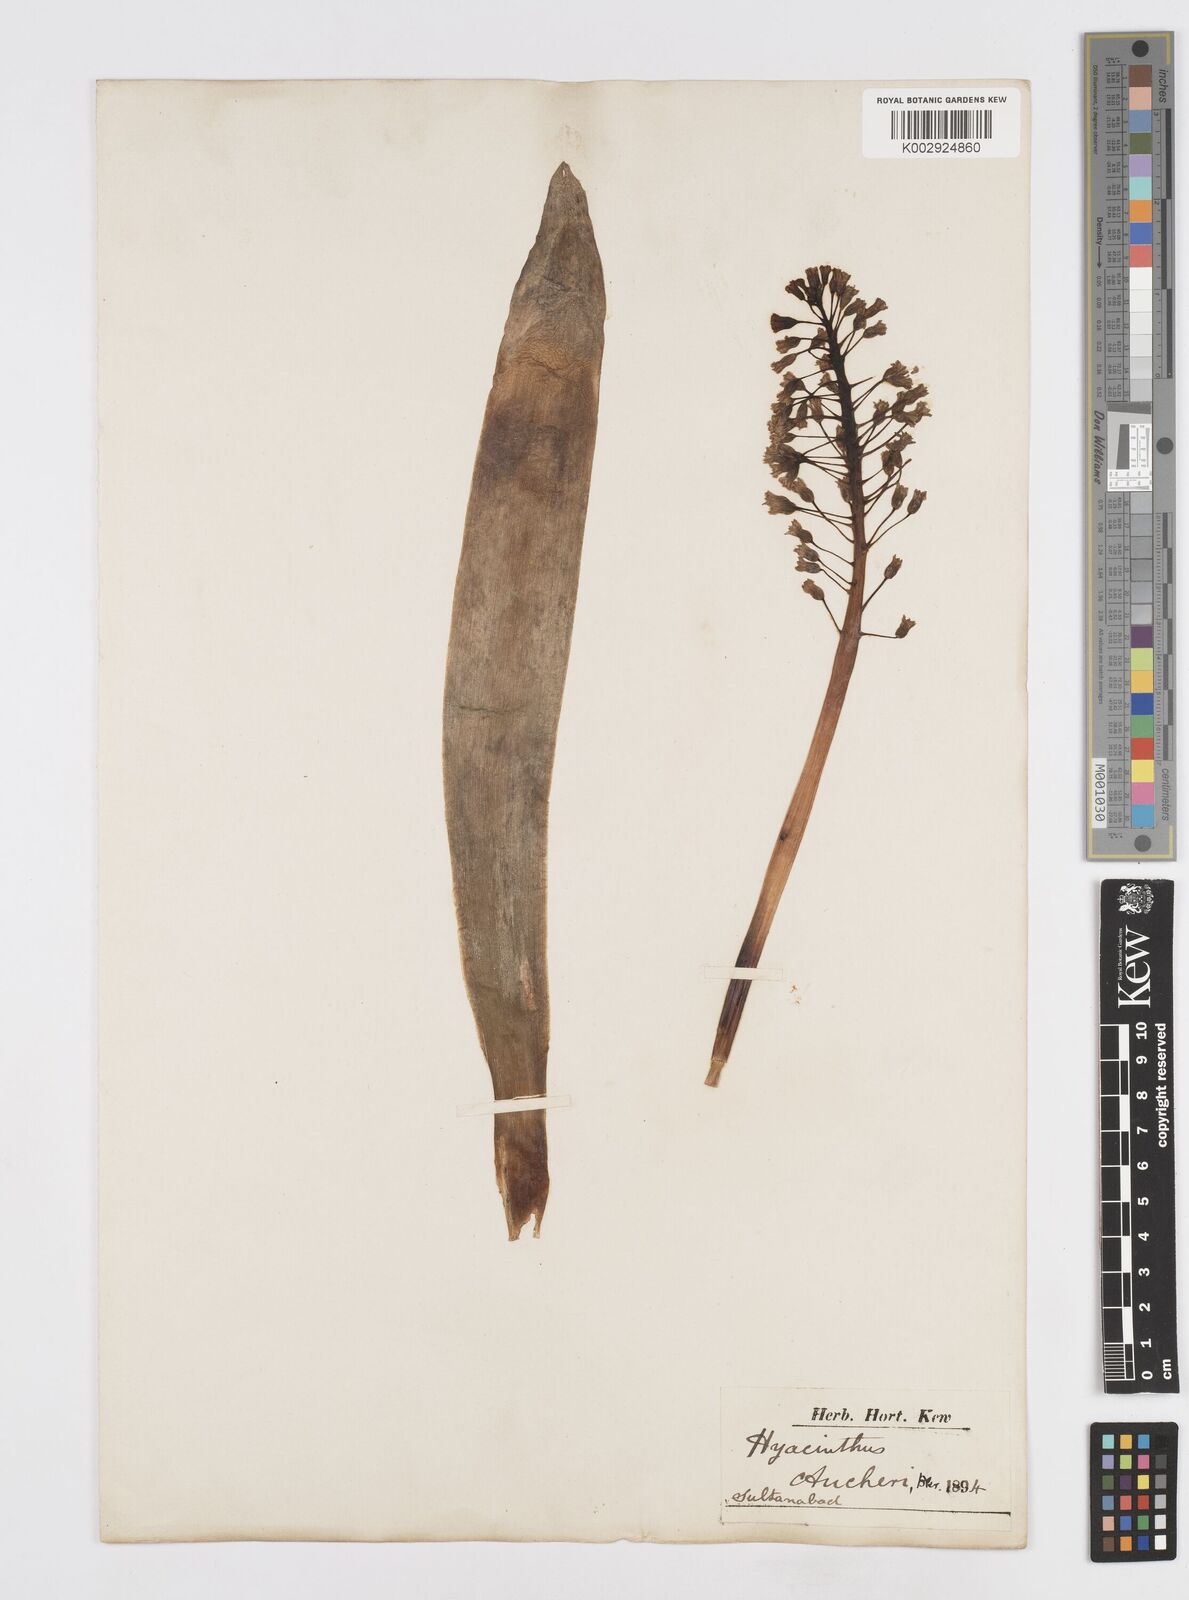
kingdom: Plantae
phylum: Tracheophyta
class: Liliopsida
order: Asparagales
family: Asparagaceae
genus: Bellevalia
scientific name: Bellevalia aucheri
